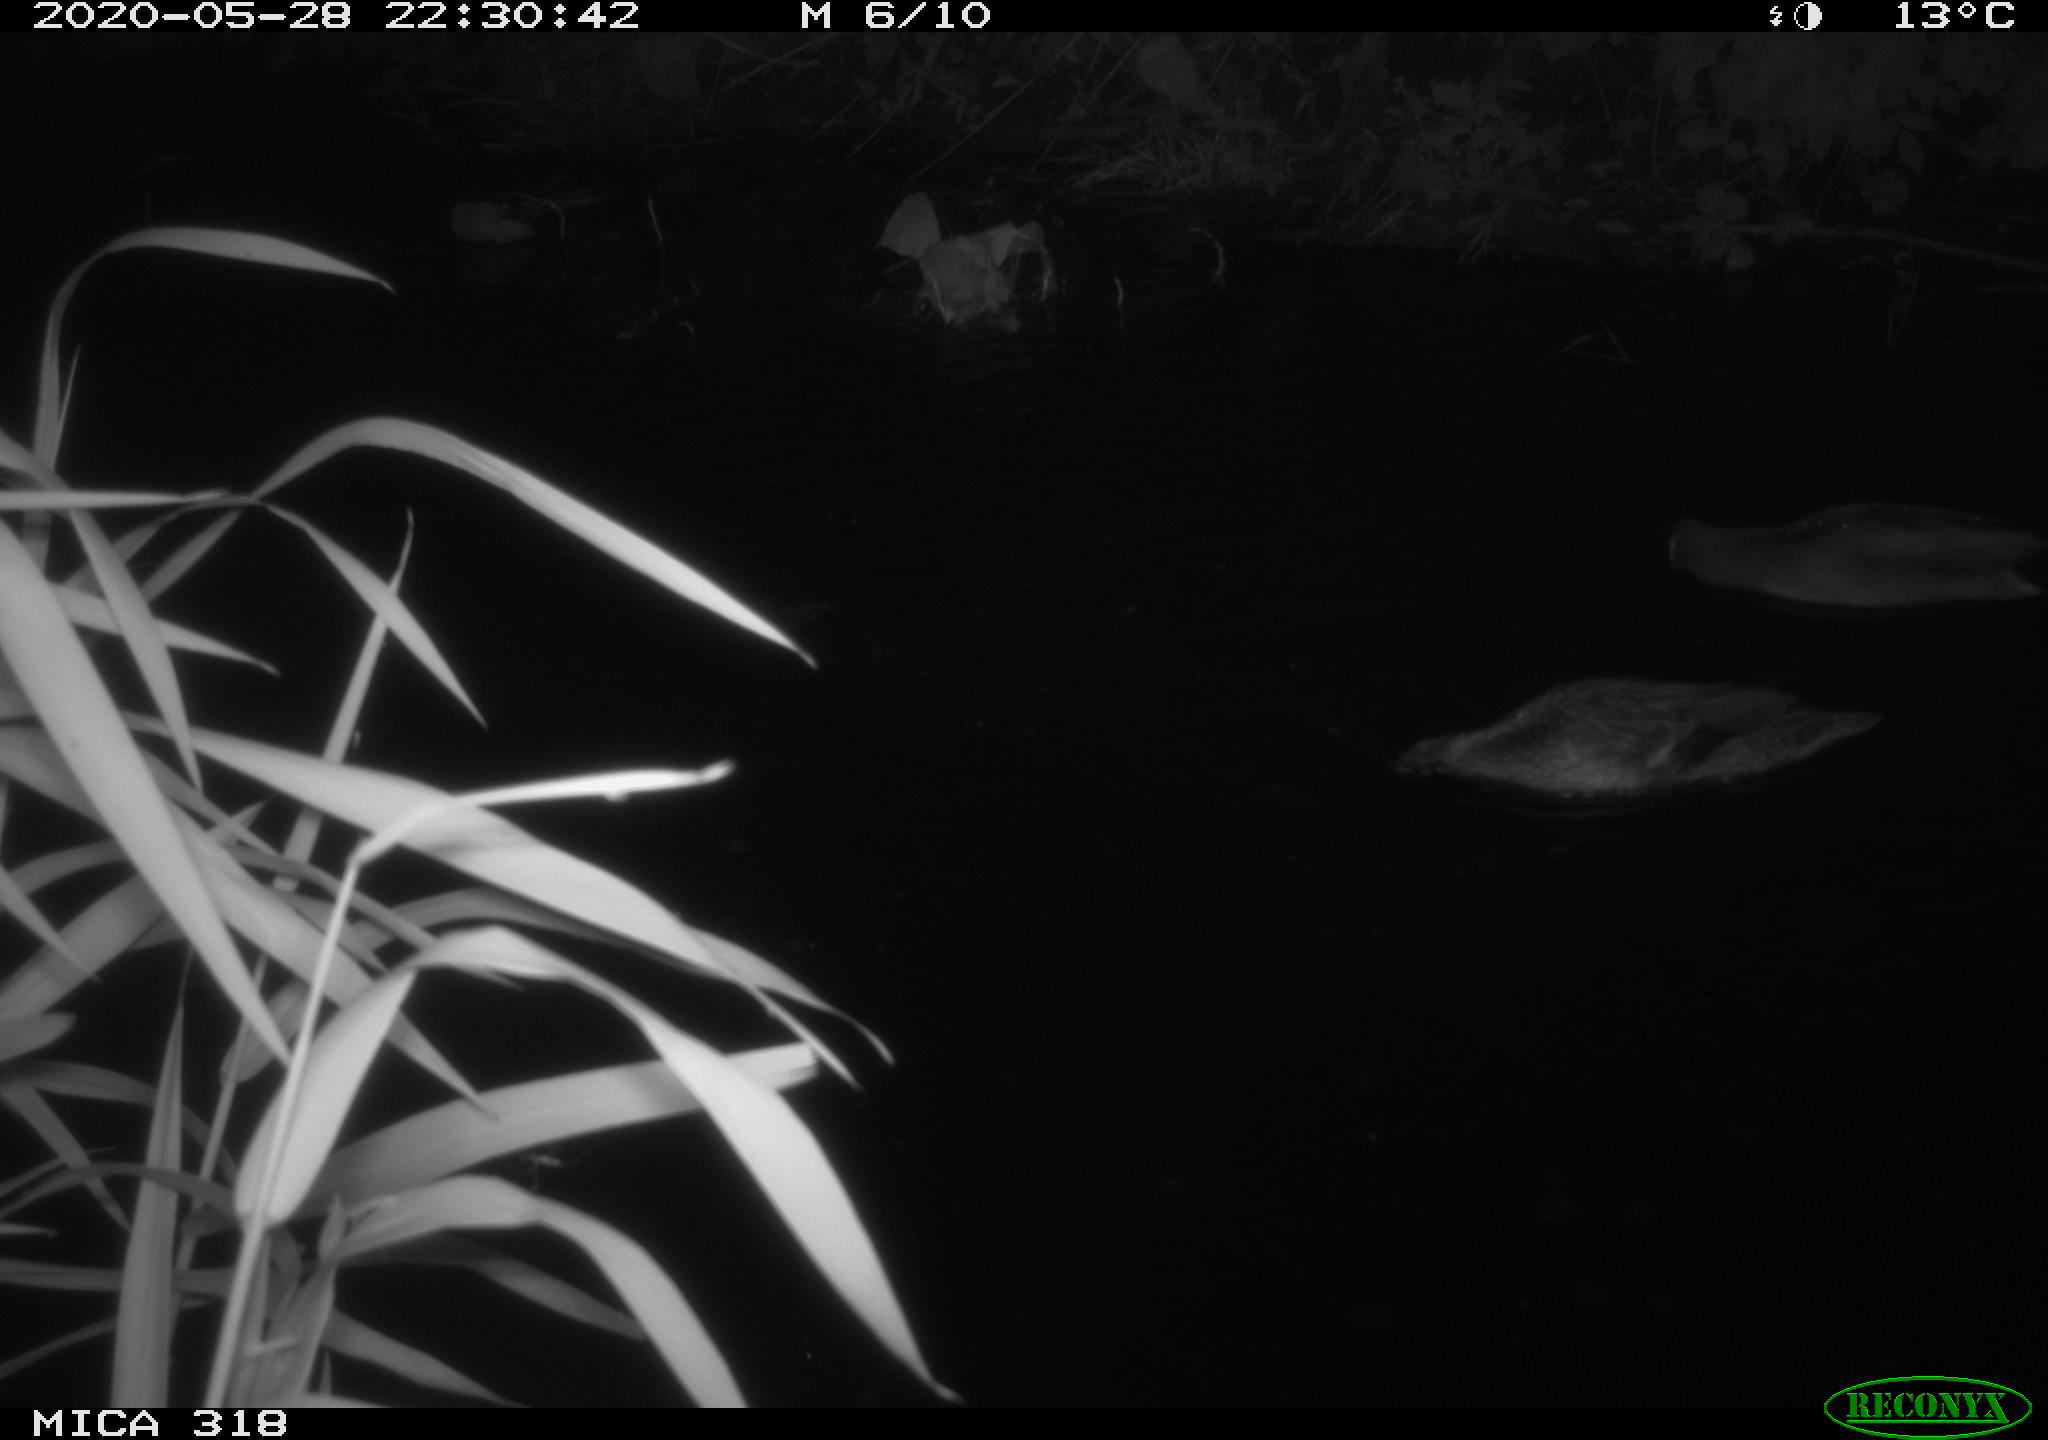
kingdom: Animalia
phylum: Chordata
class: Aves
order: Anseriformes
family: Anatidae
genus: Anas
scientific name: Anas platyrhynchos
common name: Mallard
